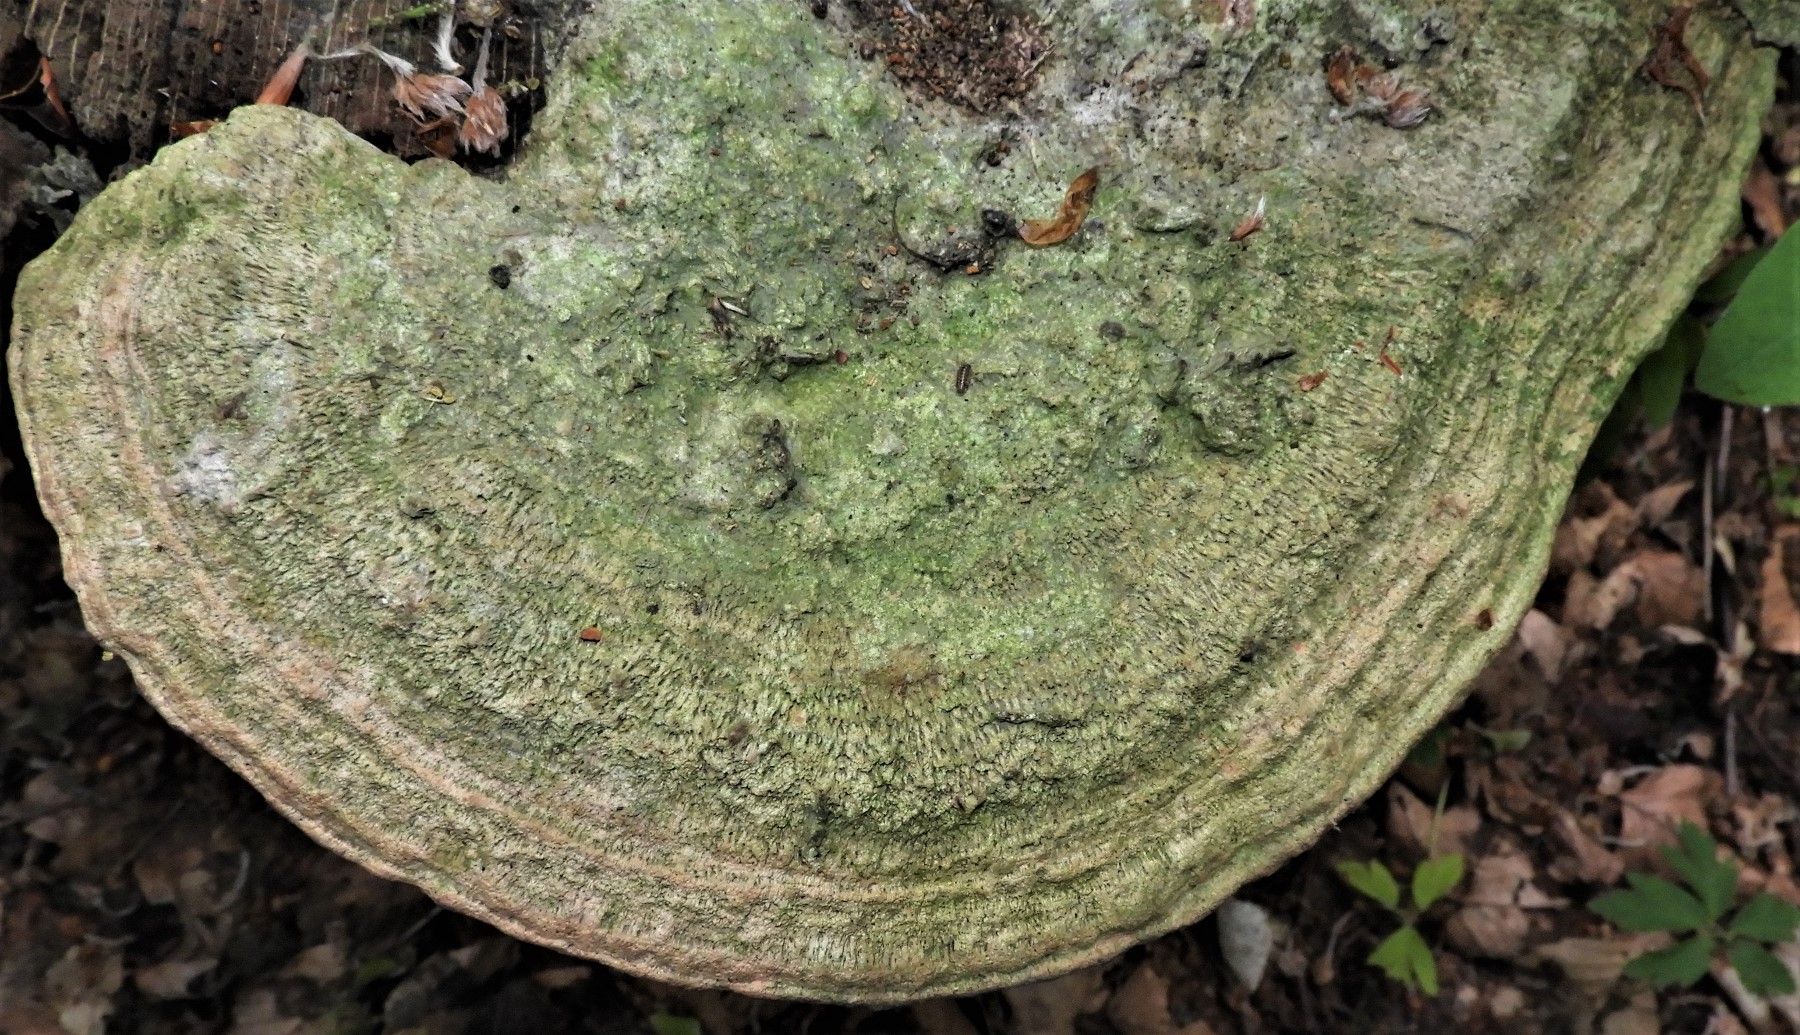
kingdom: Fungi
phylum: Basidiomycota
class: Agaricomycetes
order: Polyporales
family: Fomitopsidaceae
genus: Daedalea
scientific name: Daedalea quercina
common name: ege-labyrintsvamp
